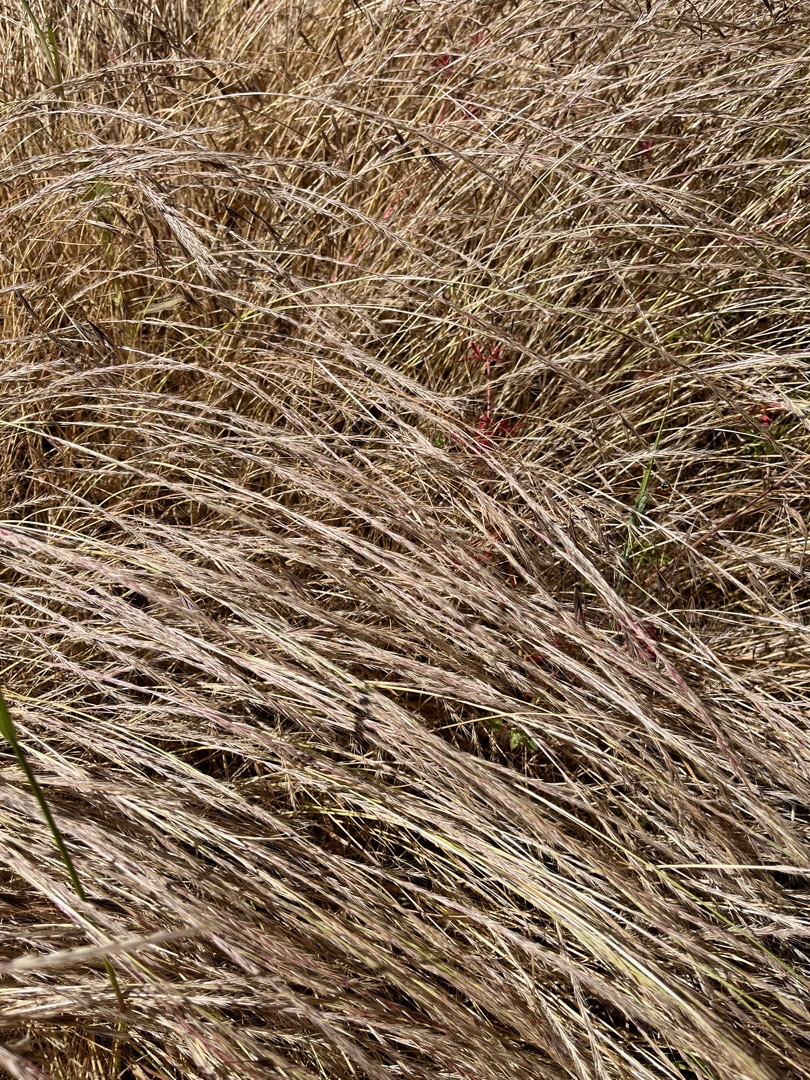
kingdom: Plantae
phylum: Tracheophyta
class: Liliopsida
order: Poales
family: Poaceae
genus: Festuca
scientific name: Festuca myuros
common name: Stor væselhale
